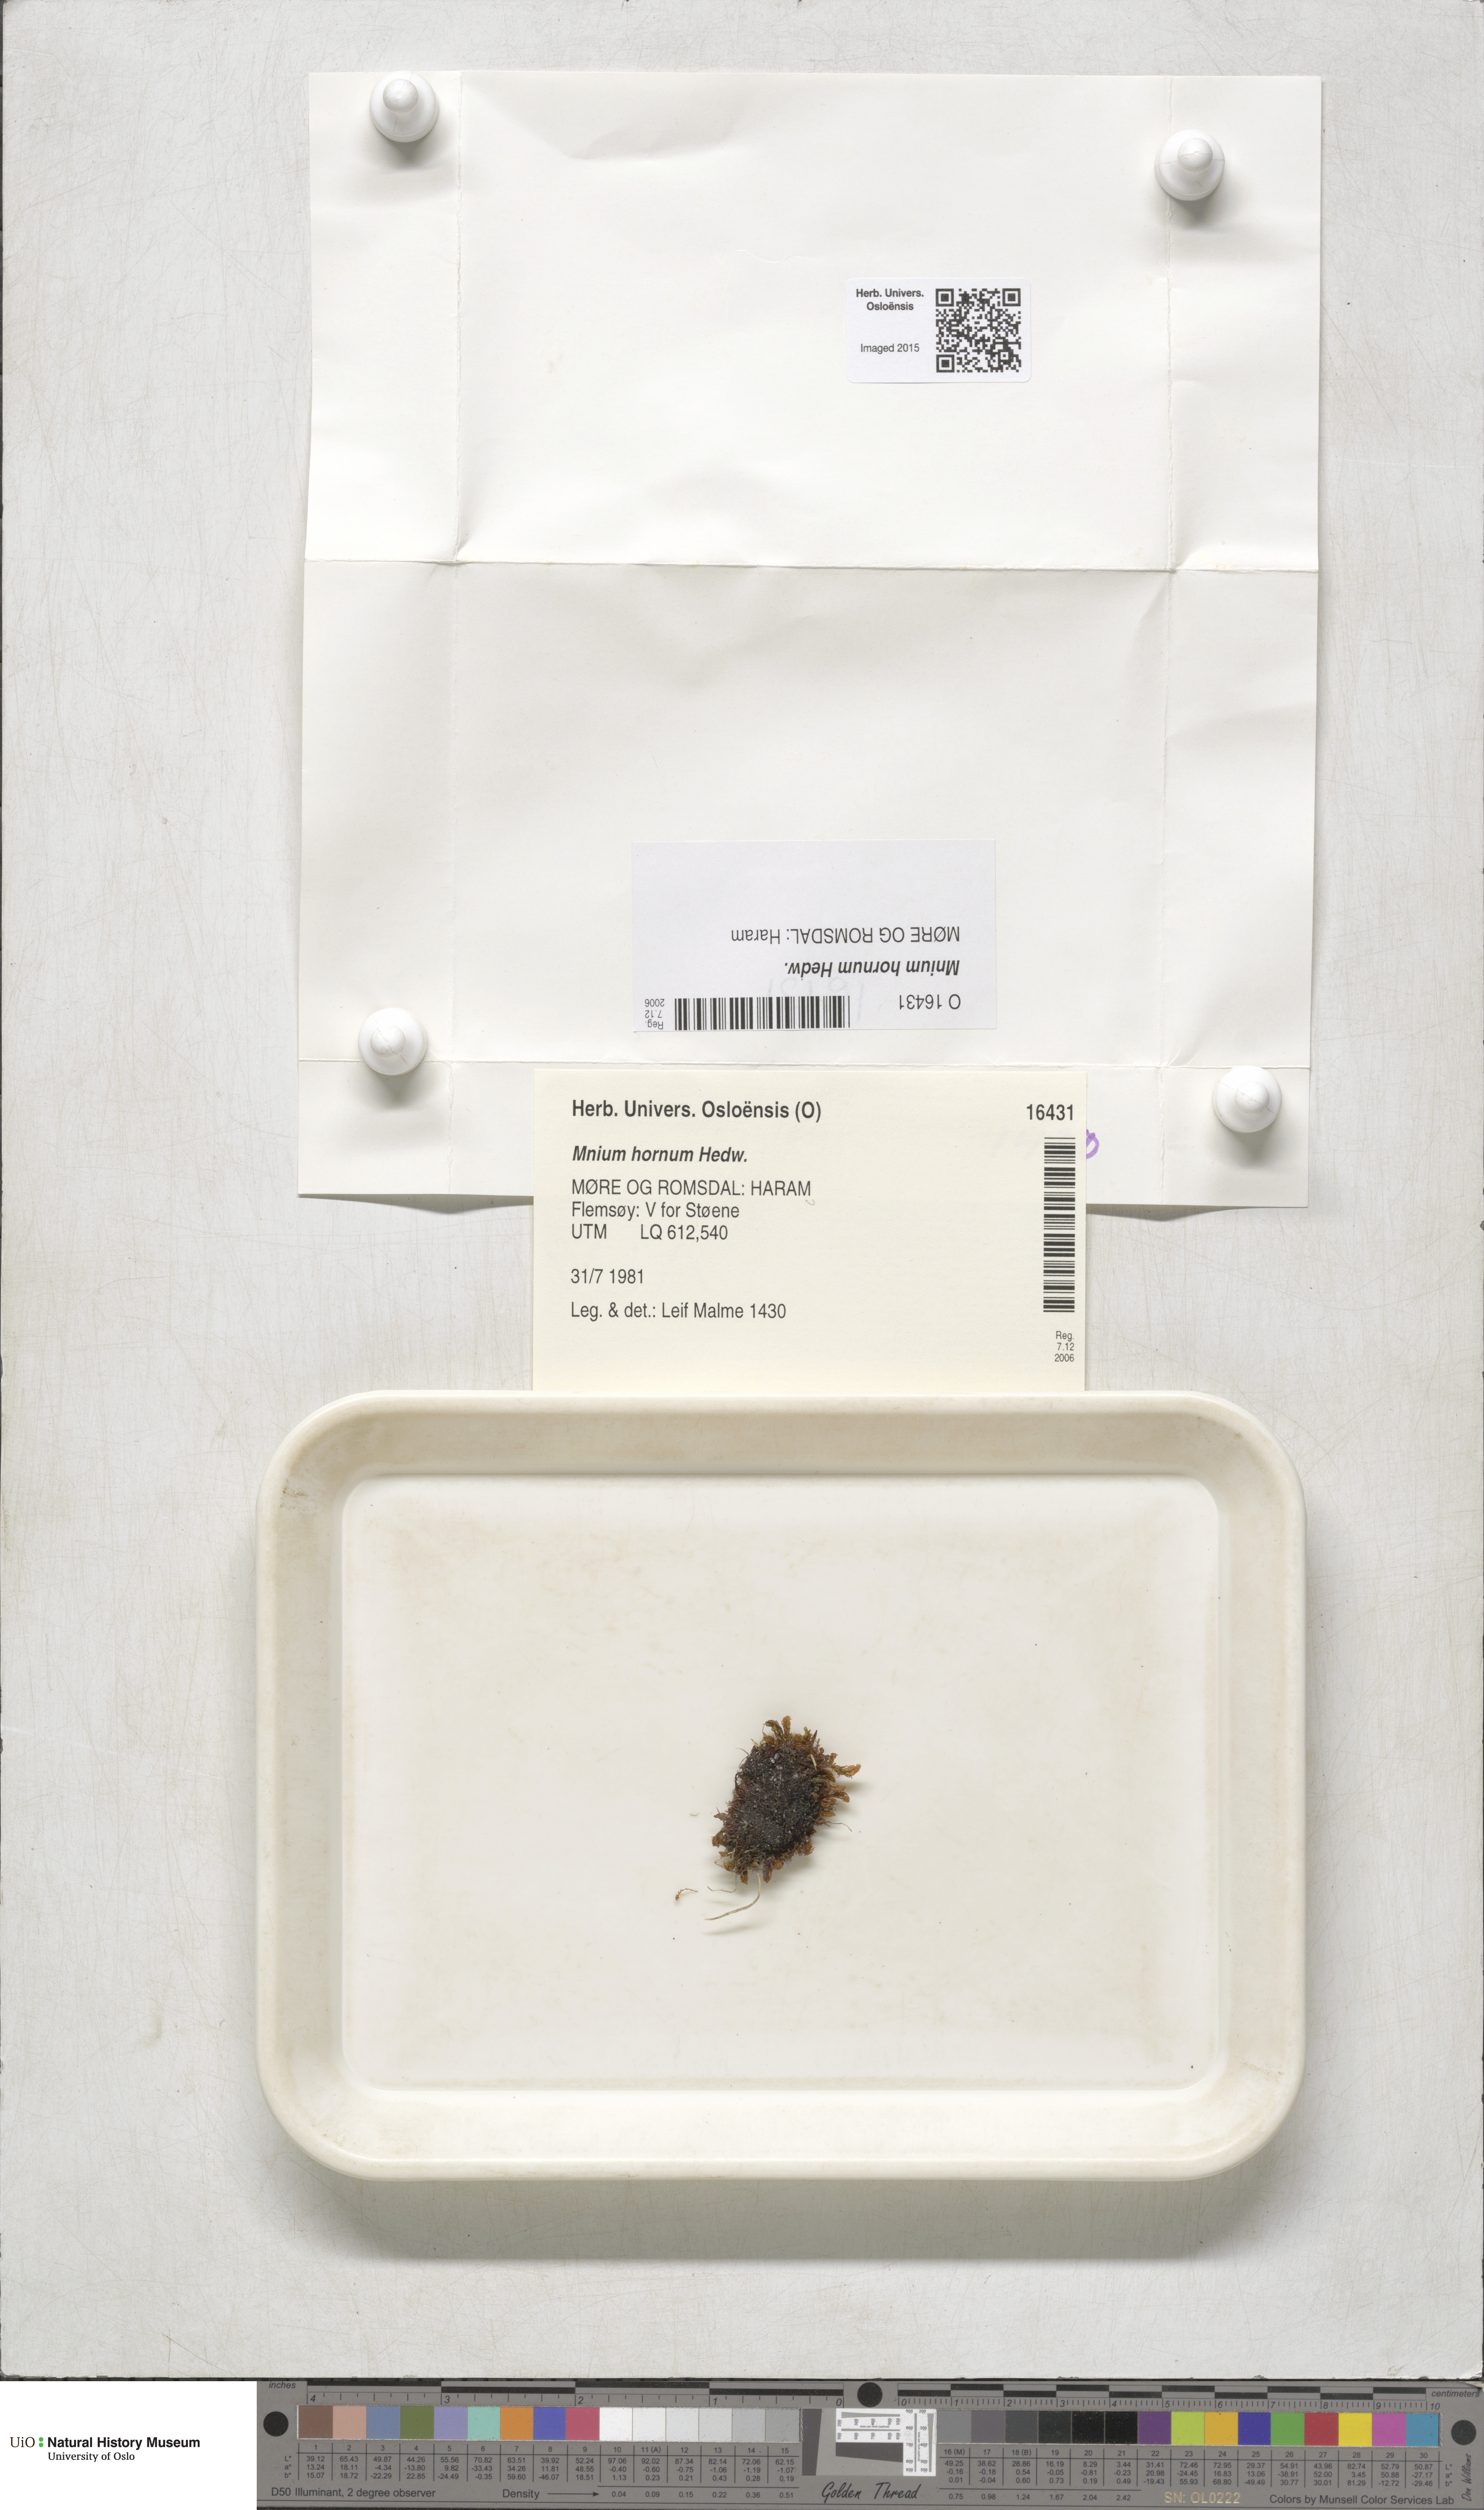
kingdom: Plantae
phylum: Bryophyta
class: Bryopsida
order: Bryales
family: Mniaceae
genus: Mnium
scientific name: Mnium hornum
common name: Swan's-neck leafy moss
